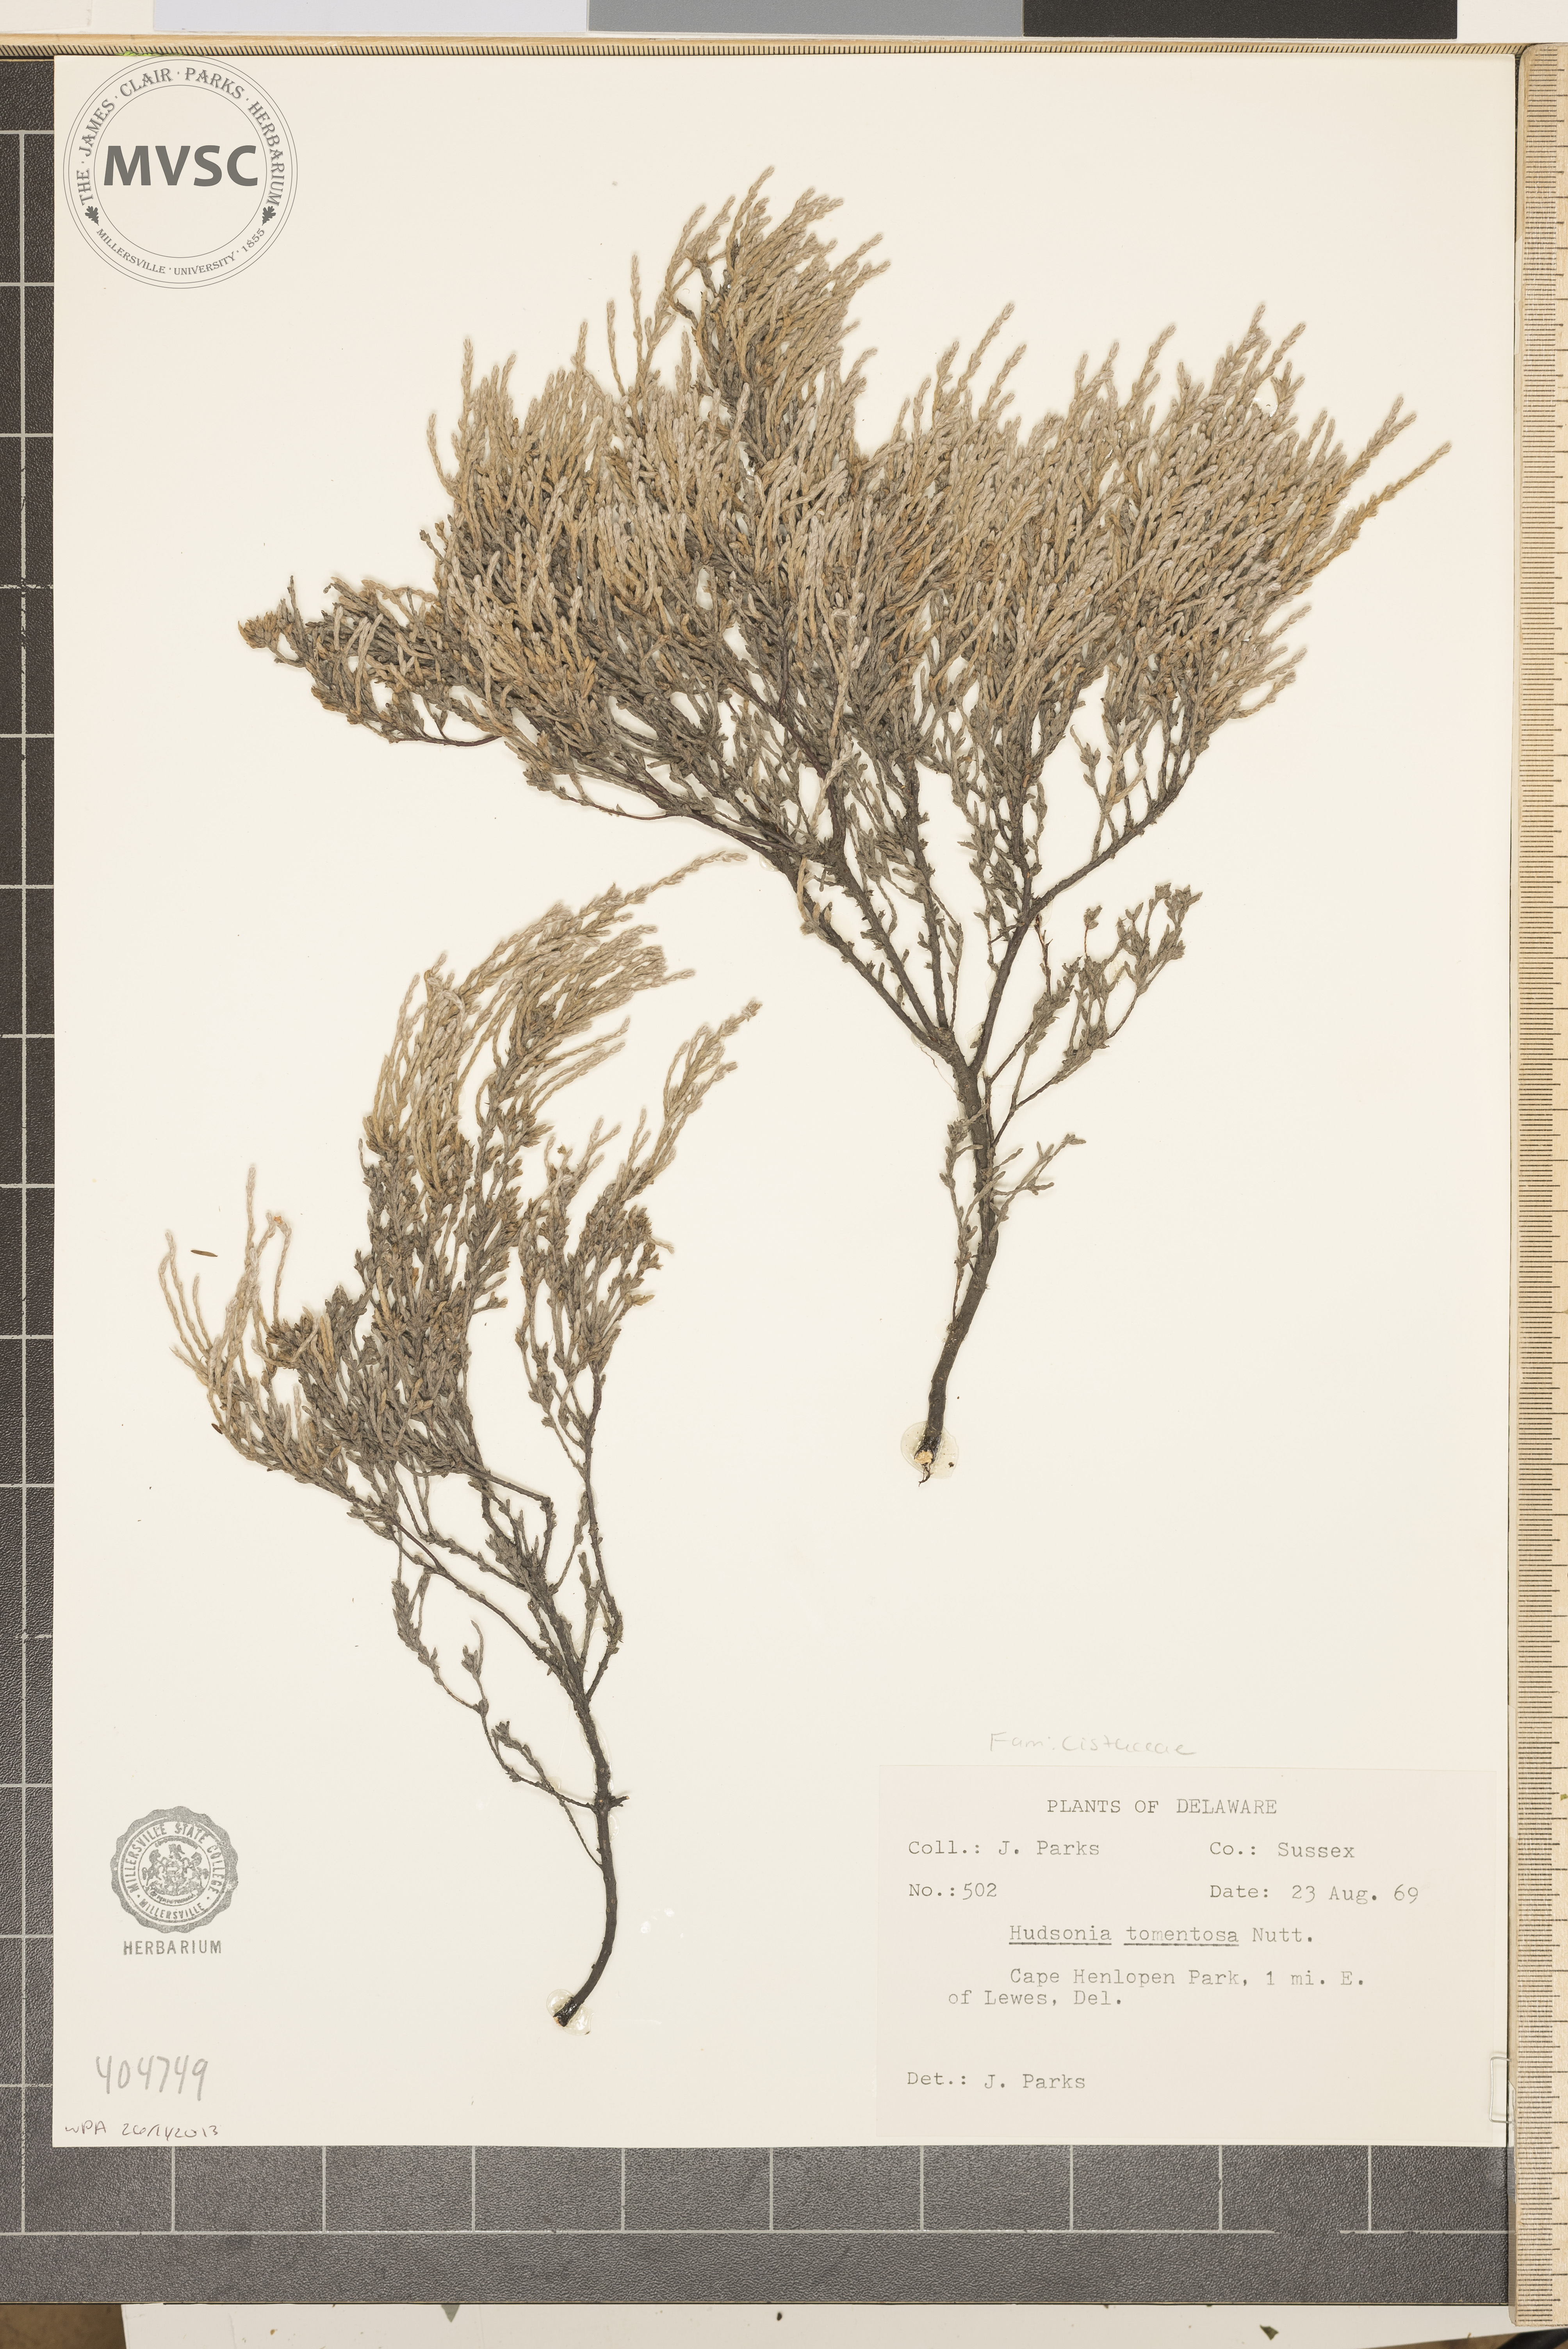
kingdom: Plantae
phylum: Tracheophyta
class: Magnoliopsida
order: Malvales
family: Cistaceae
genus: Hudsonia
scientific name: Hudsonia tomentosa
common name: Beach-heath
